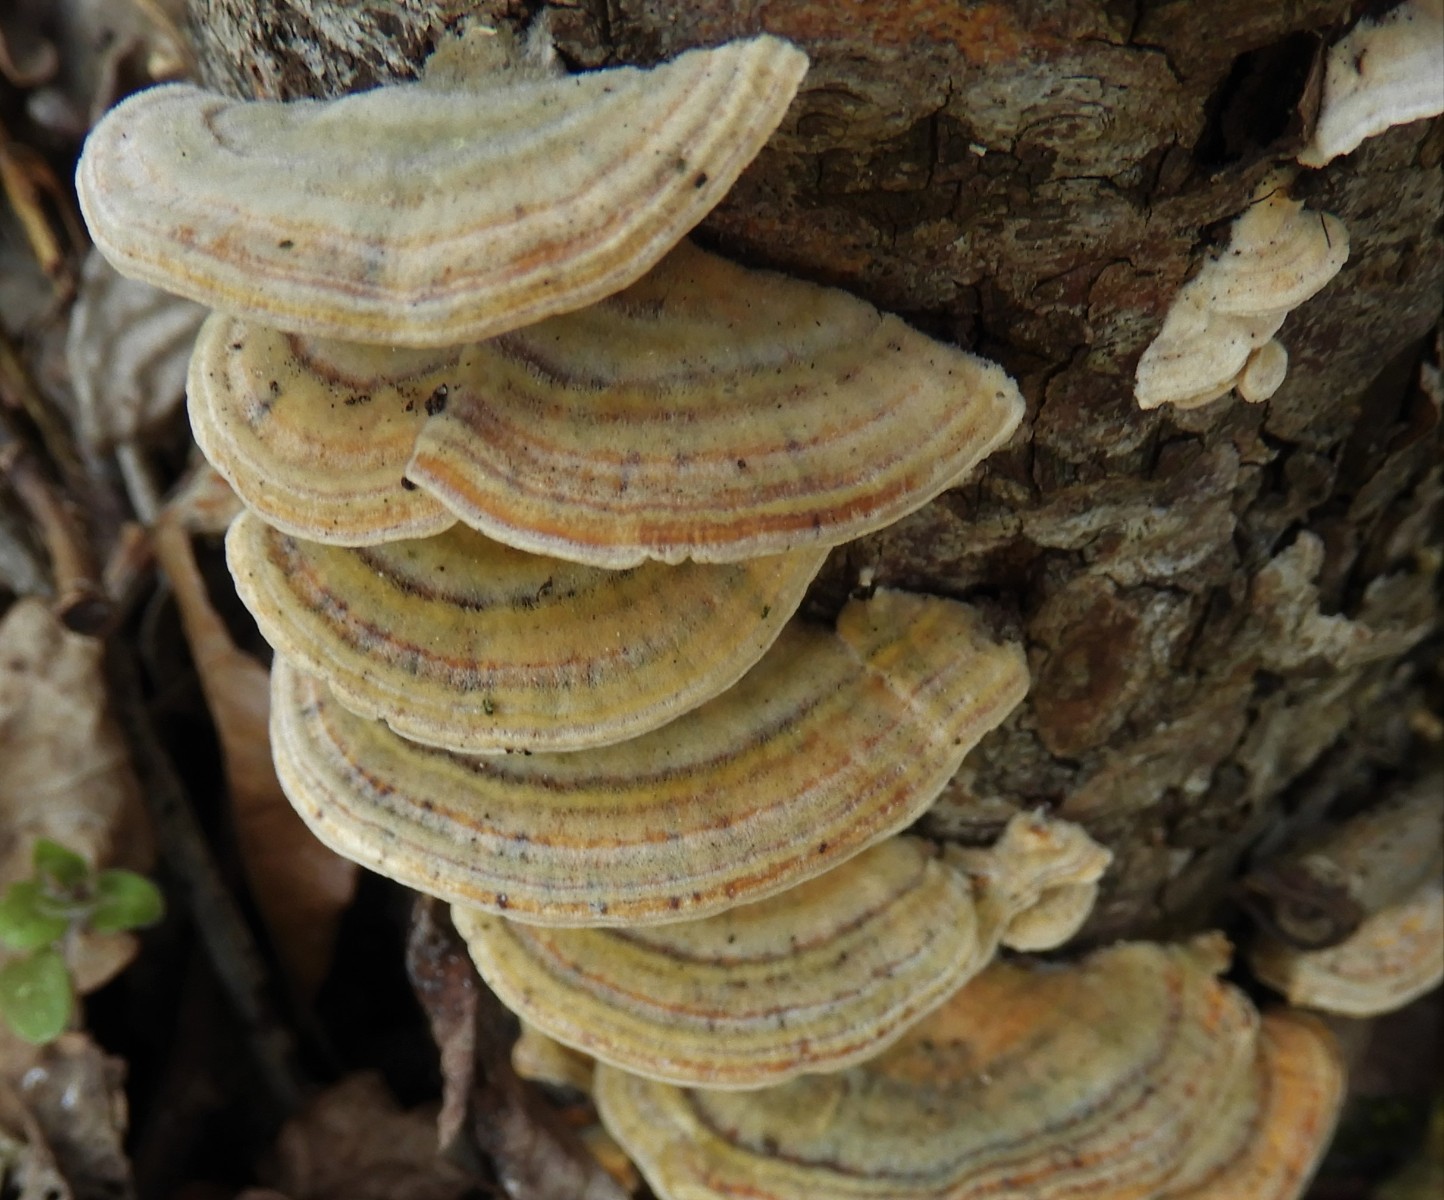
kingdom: Fungi
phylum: Basidiomycota
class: Agaricomycetes
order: Polyporales
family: Polyporaceae
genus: Trametes
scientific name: Trametes ochracea
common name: bæltet læderporesvamp
